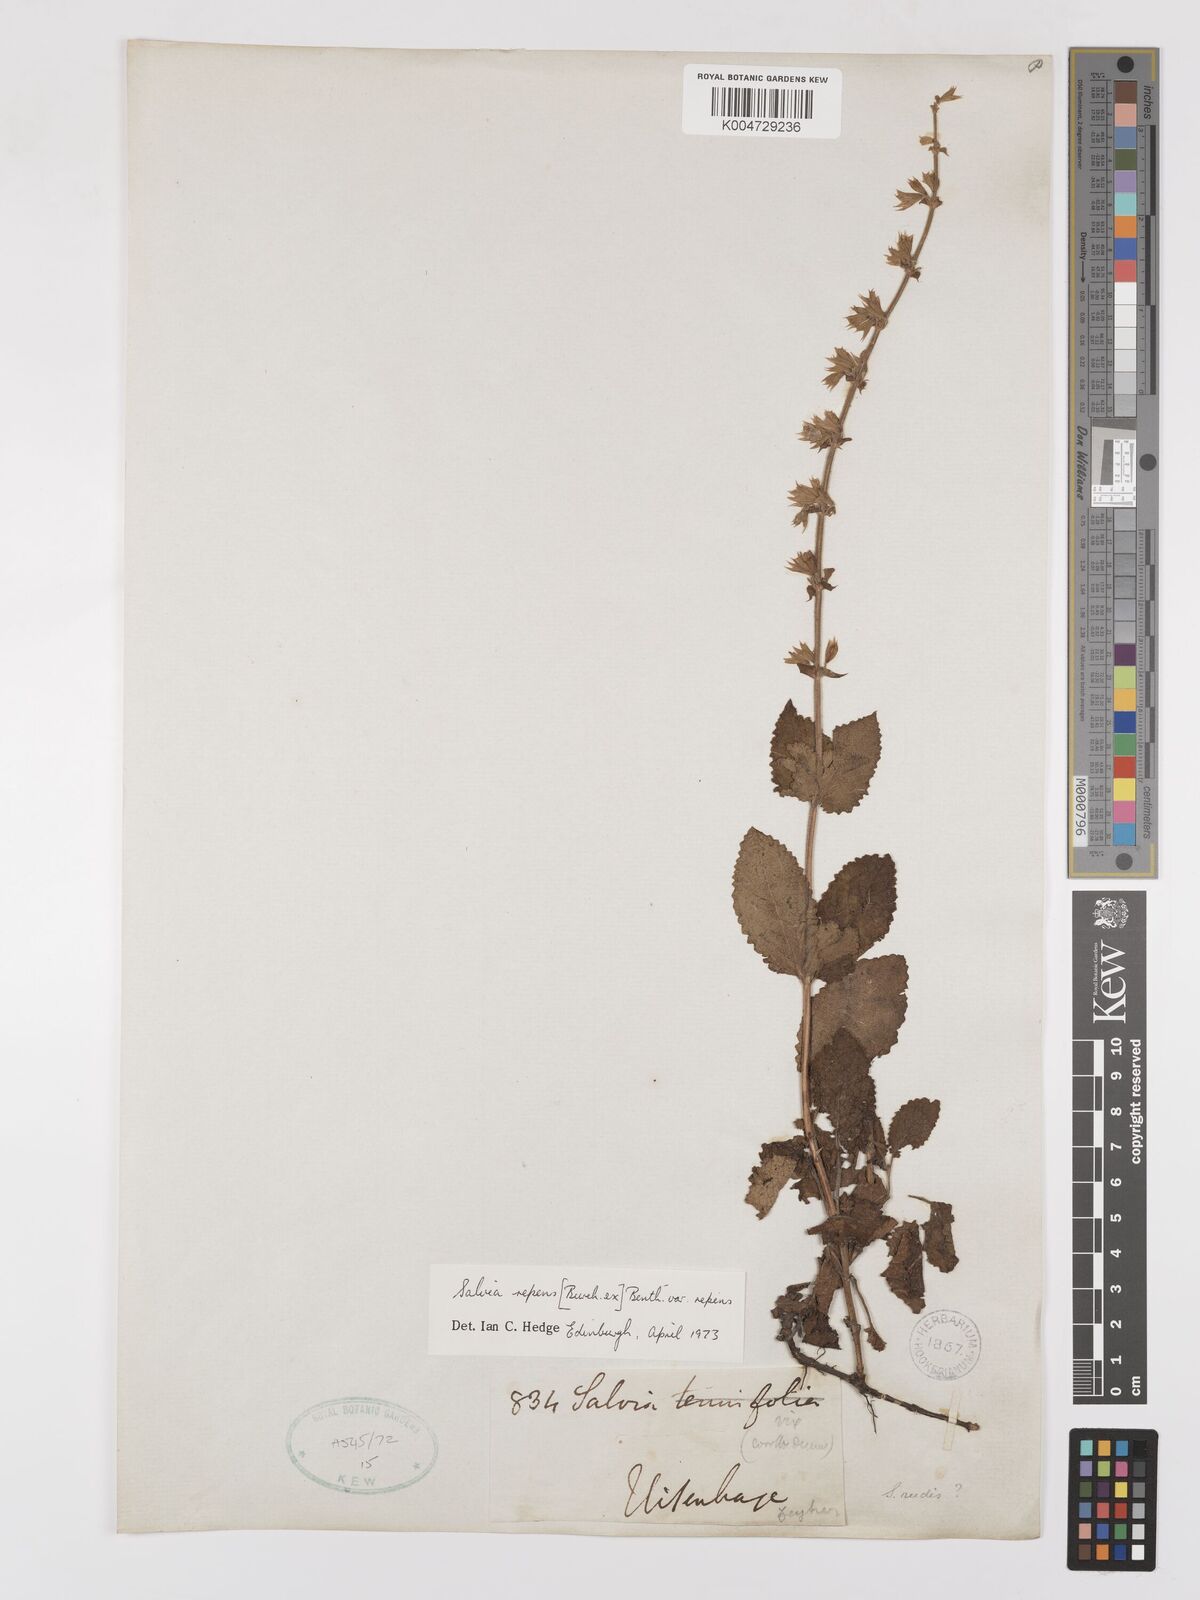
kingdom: Plantae
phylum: Tracheophyta
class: Magnoliopsida
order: Lamiales
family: Lamiaceae
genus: Salvia
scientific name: Salvia repens
